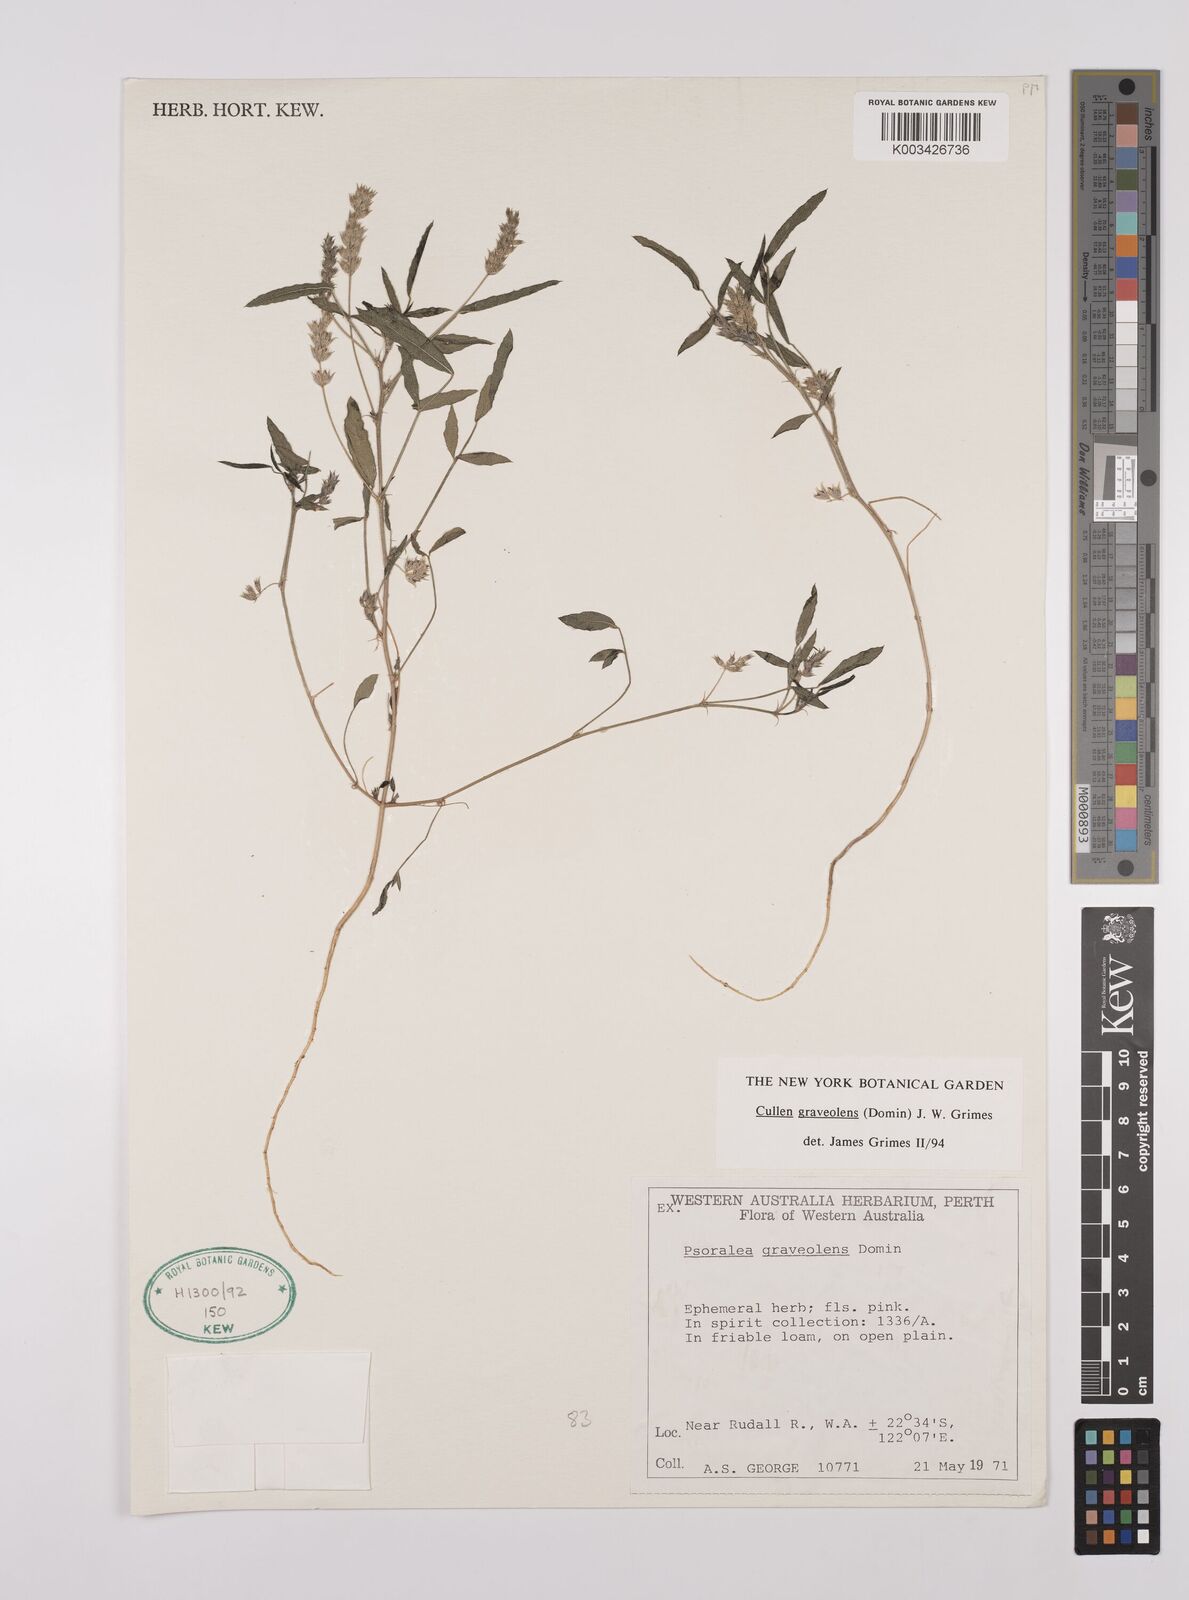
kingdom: Plantae
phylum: Tracheophyta
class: Magnoliopsida
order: Fabales
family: Fabaceae
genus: Cullen
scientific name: Cullen graveolens
